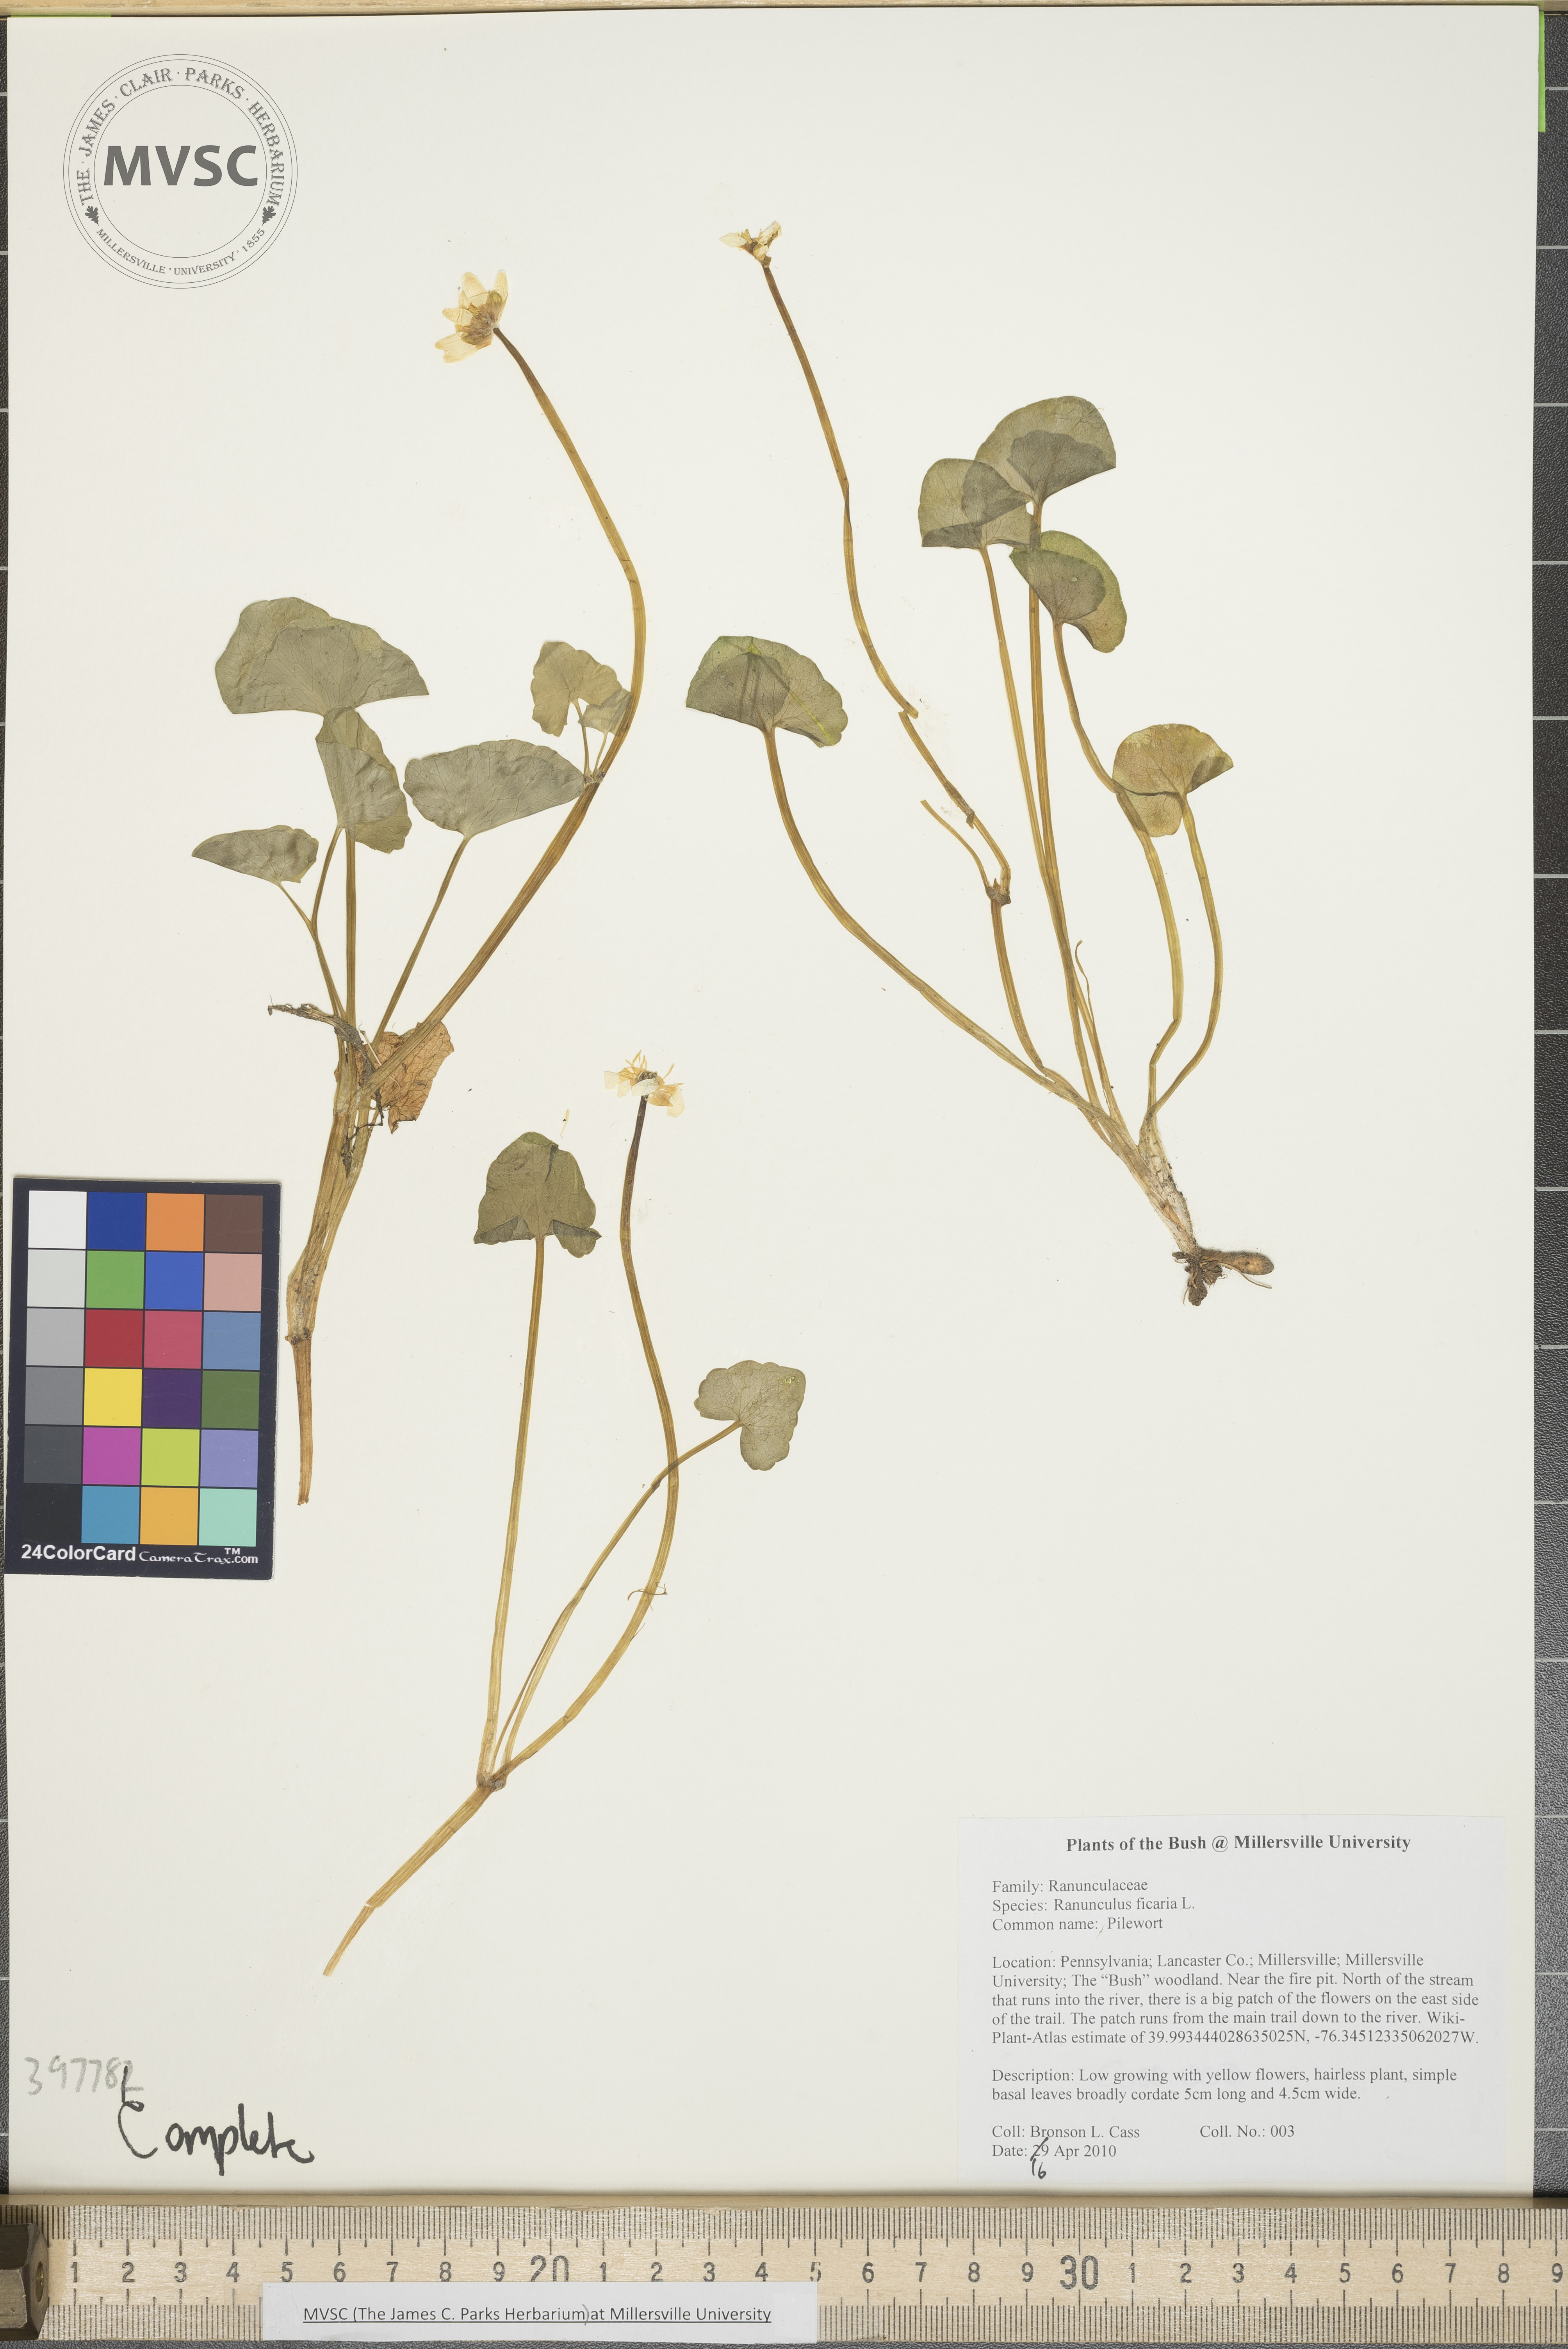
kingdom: Plantae
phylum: Tracheophyta
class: Magnoliopsida
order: Ranunculales
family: Ranunculaceae
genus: Ranunculus
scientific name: Ranunculus ficaria
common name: Lesser celandine
